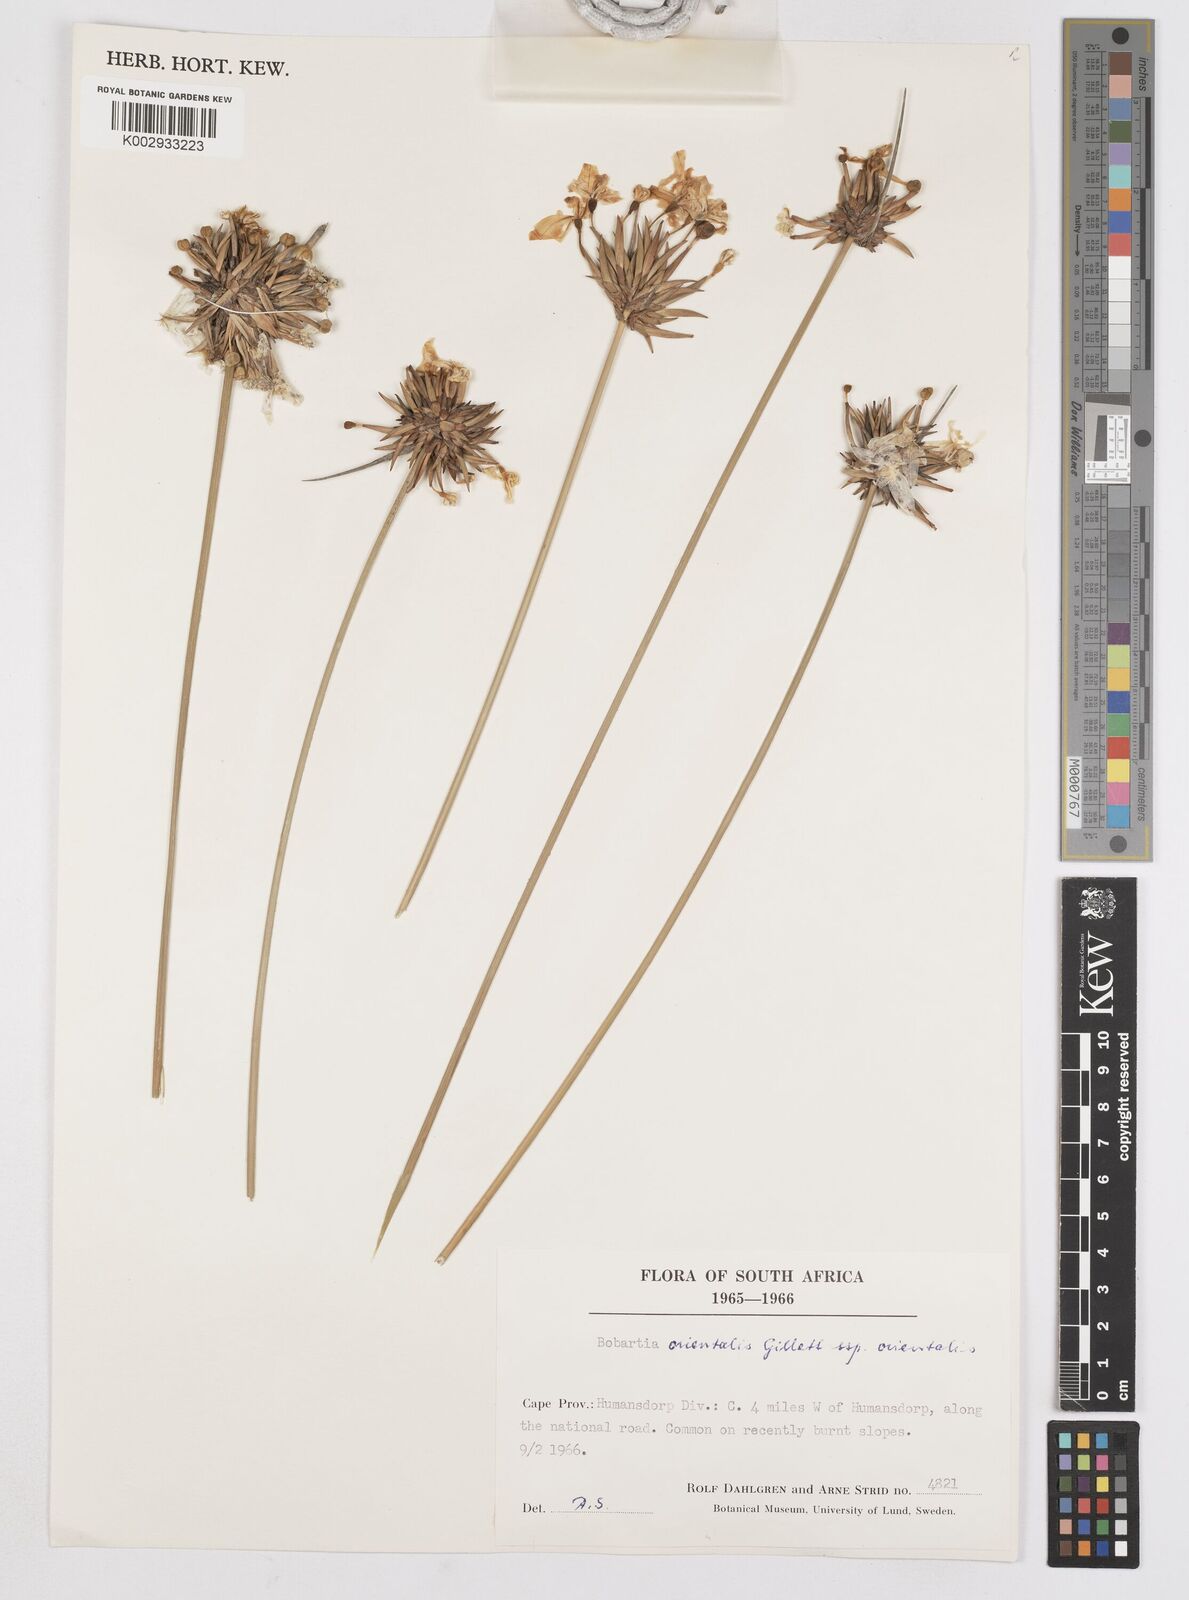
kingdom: Plantae
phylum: Tracheophyta
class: Liliopsida
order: Asparagales
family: Iridaceae
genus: Bobartia
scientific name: Bobartia orientalis
